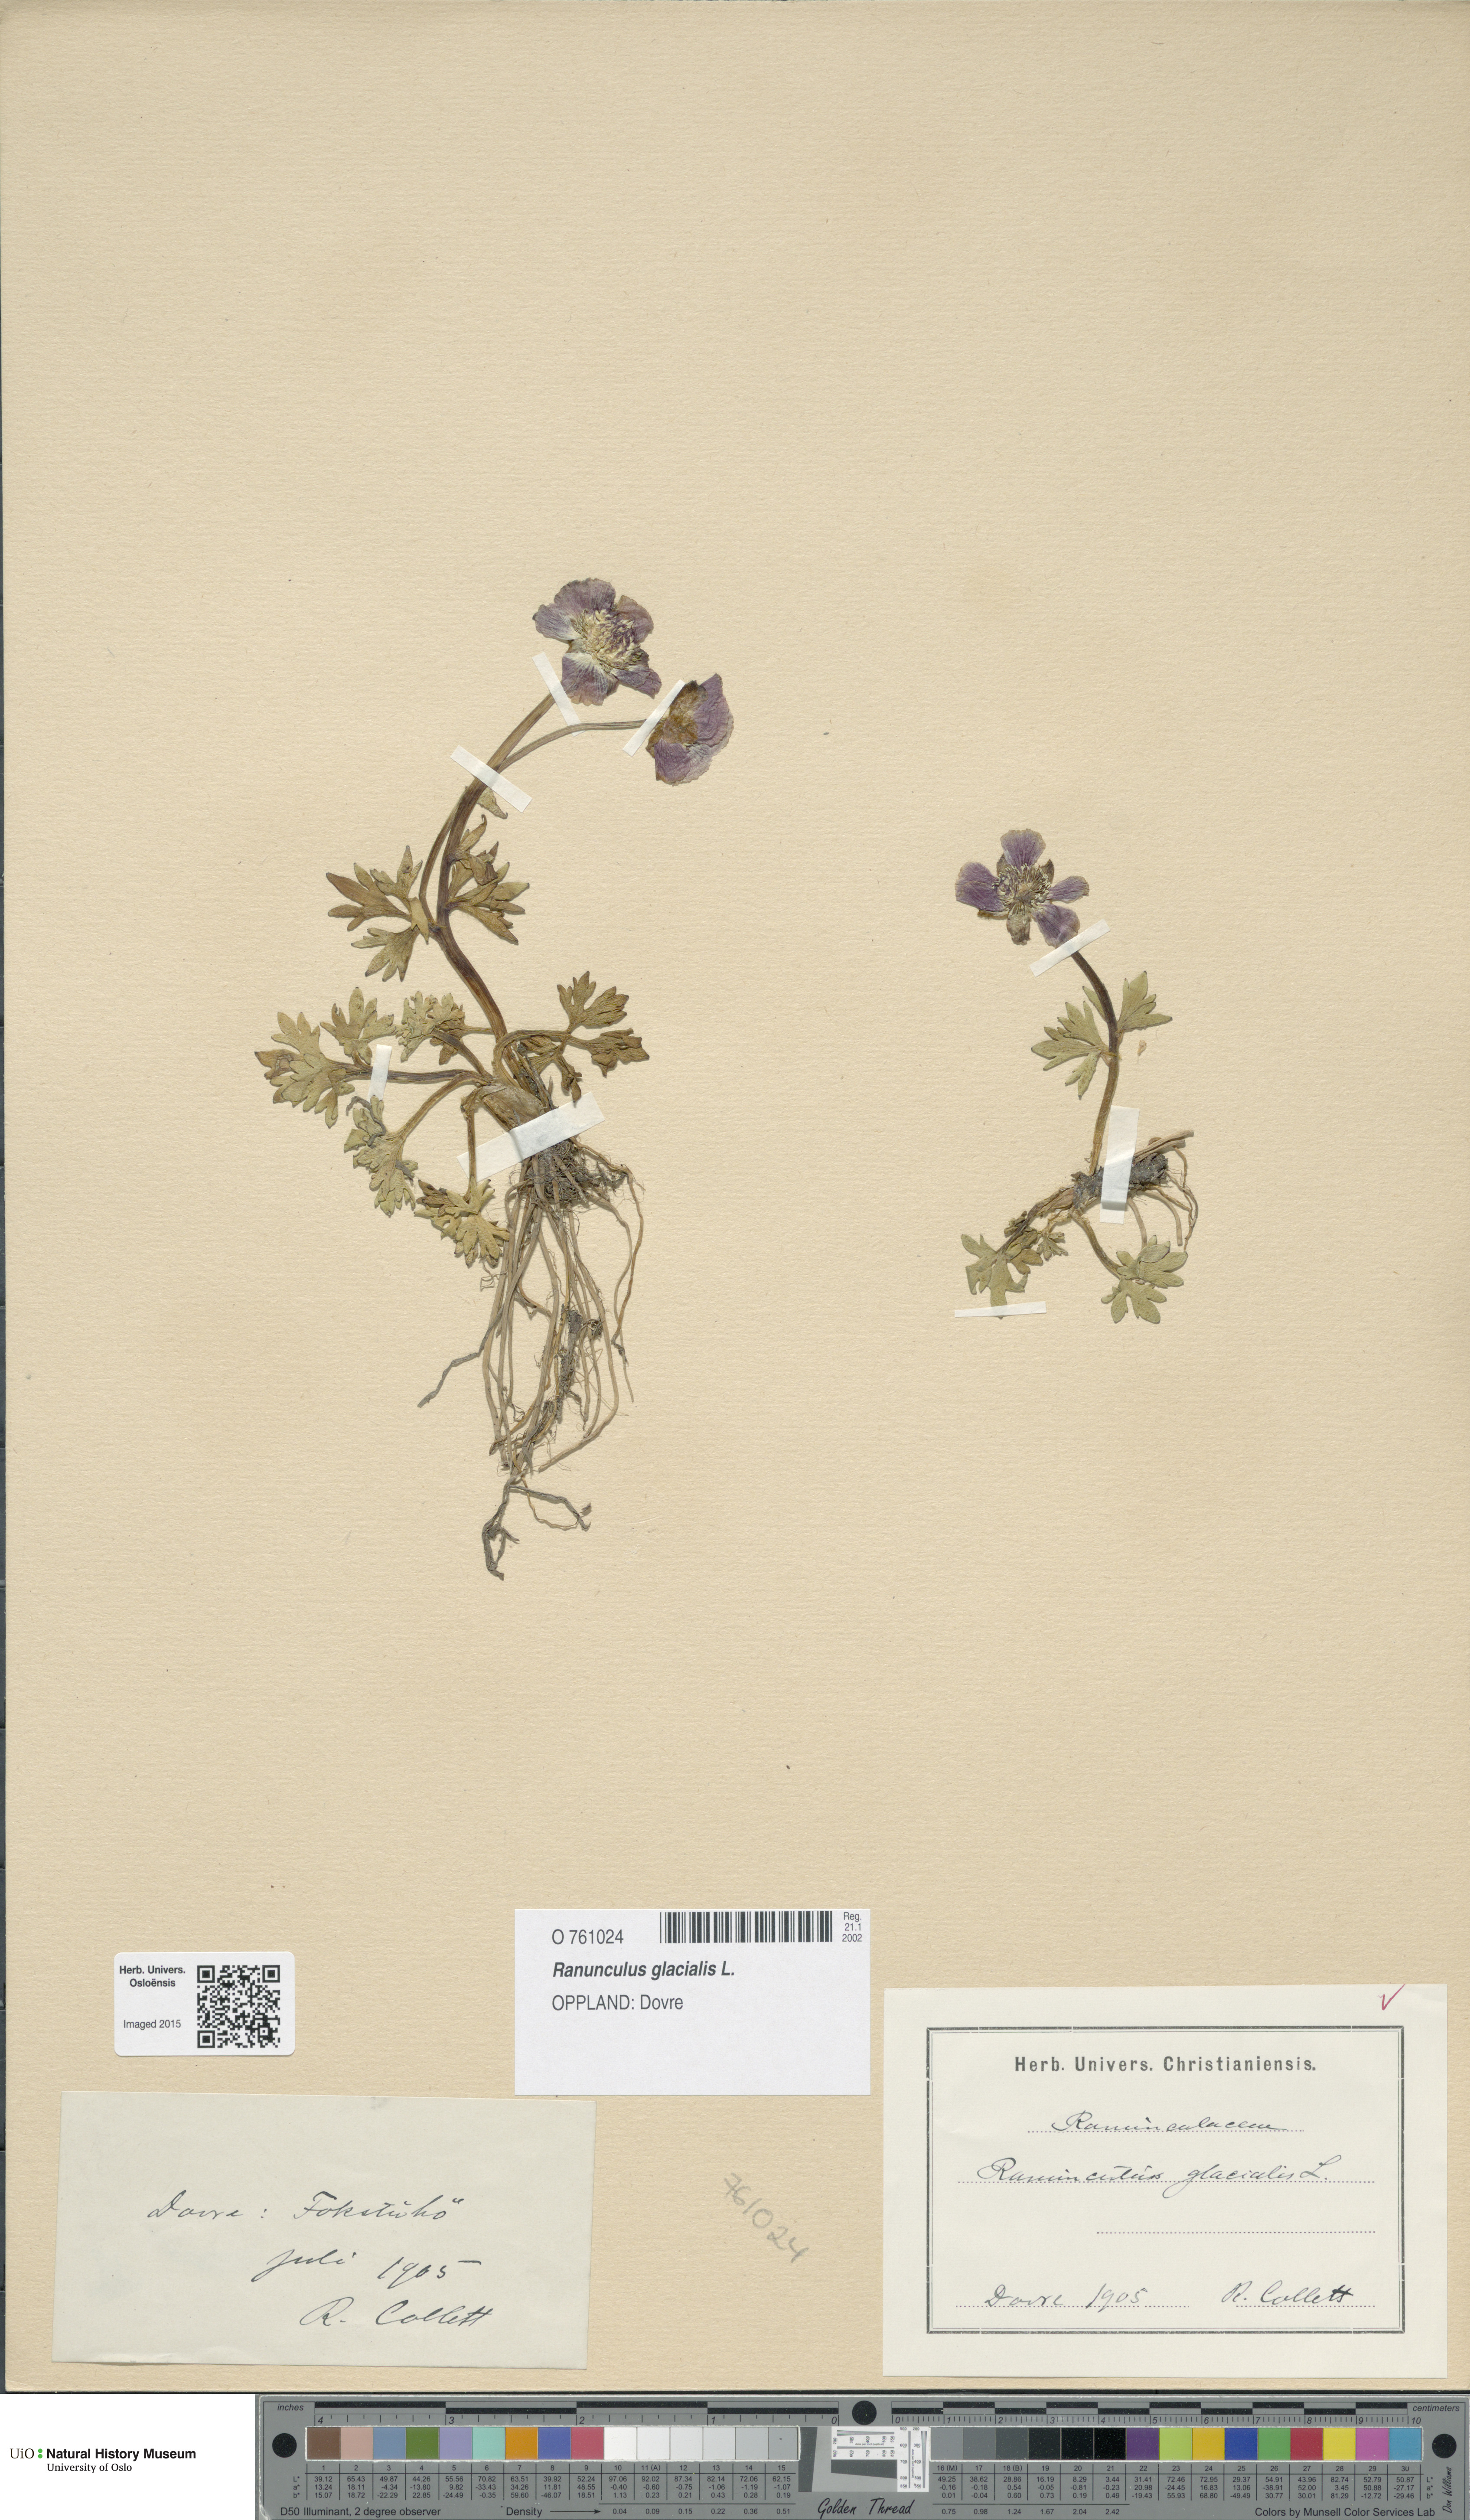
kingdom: Plantae
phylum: Tracheophyta
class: Magnoliopsida
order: Ranunculales
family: Ranunculaceae
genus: Ranunculus
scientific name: Ranunculus glacialis
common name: Glacier buttercup
